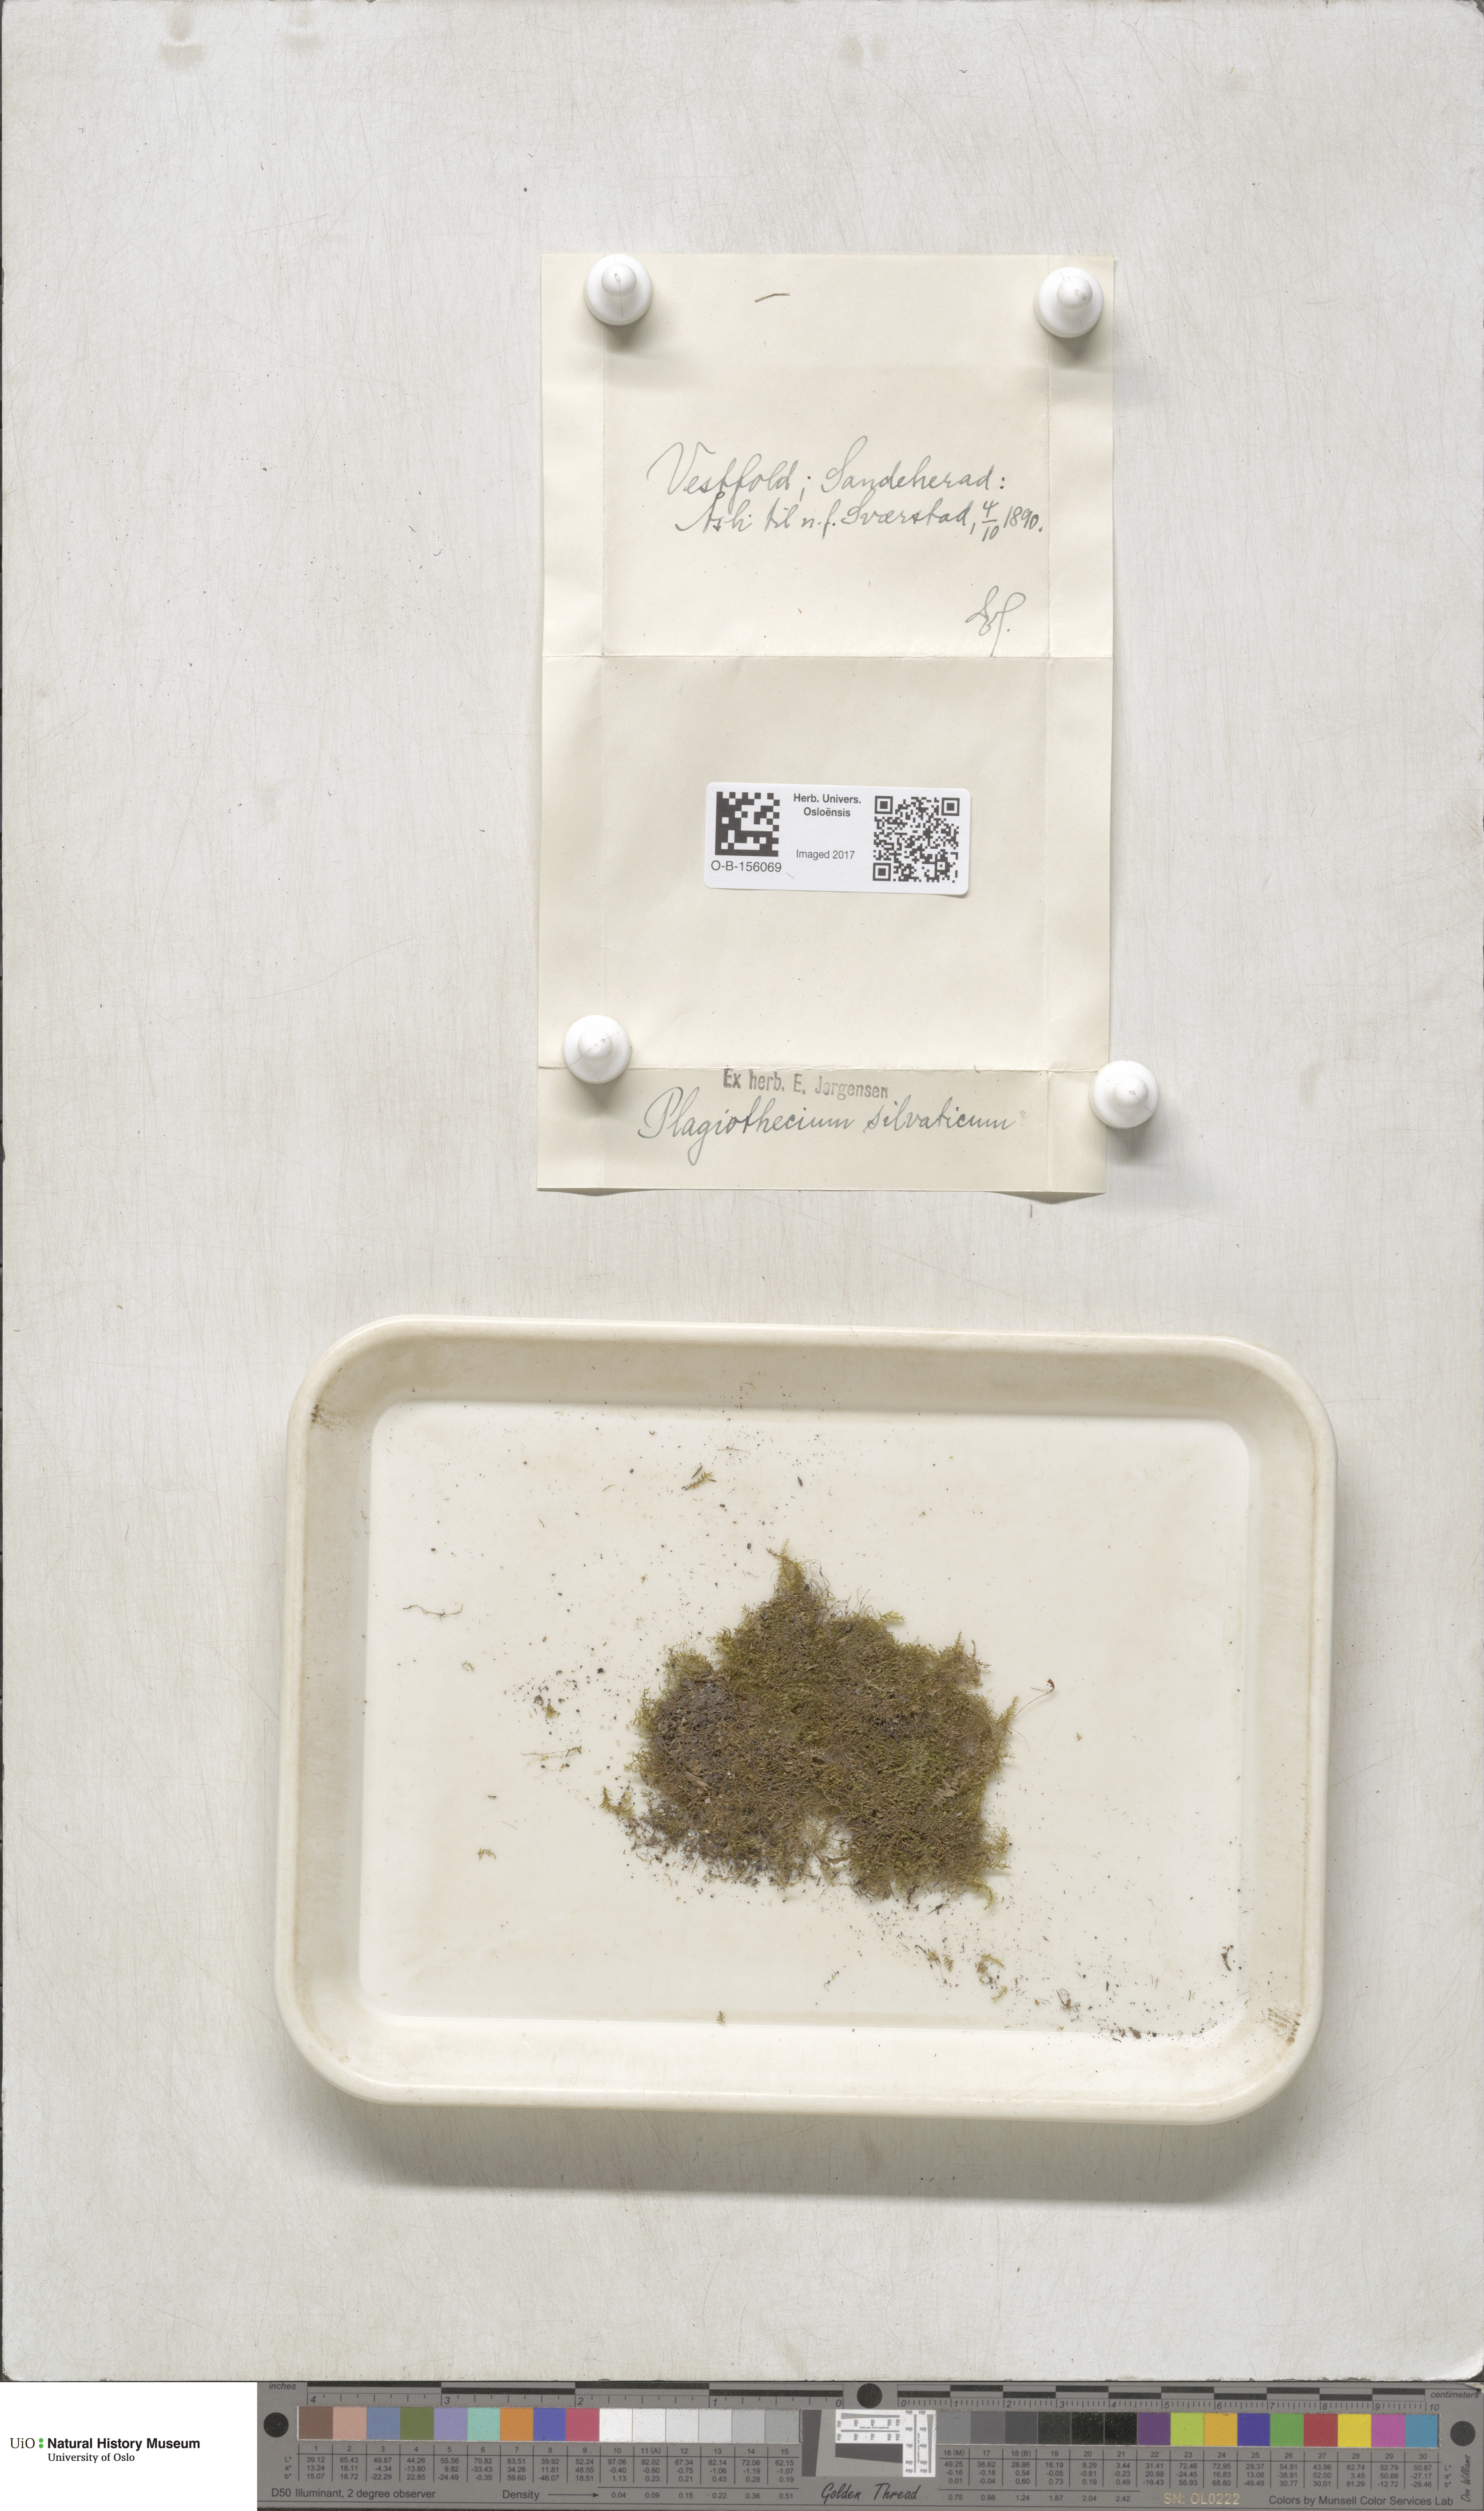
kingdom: Plantae
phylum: Bryophyta
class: Bryopsida
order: Hypnales
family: Plagiotheciaceae
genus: Plagiothecium
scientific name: Plagiothecium nemorale
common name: Woodsy silk-moss
